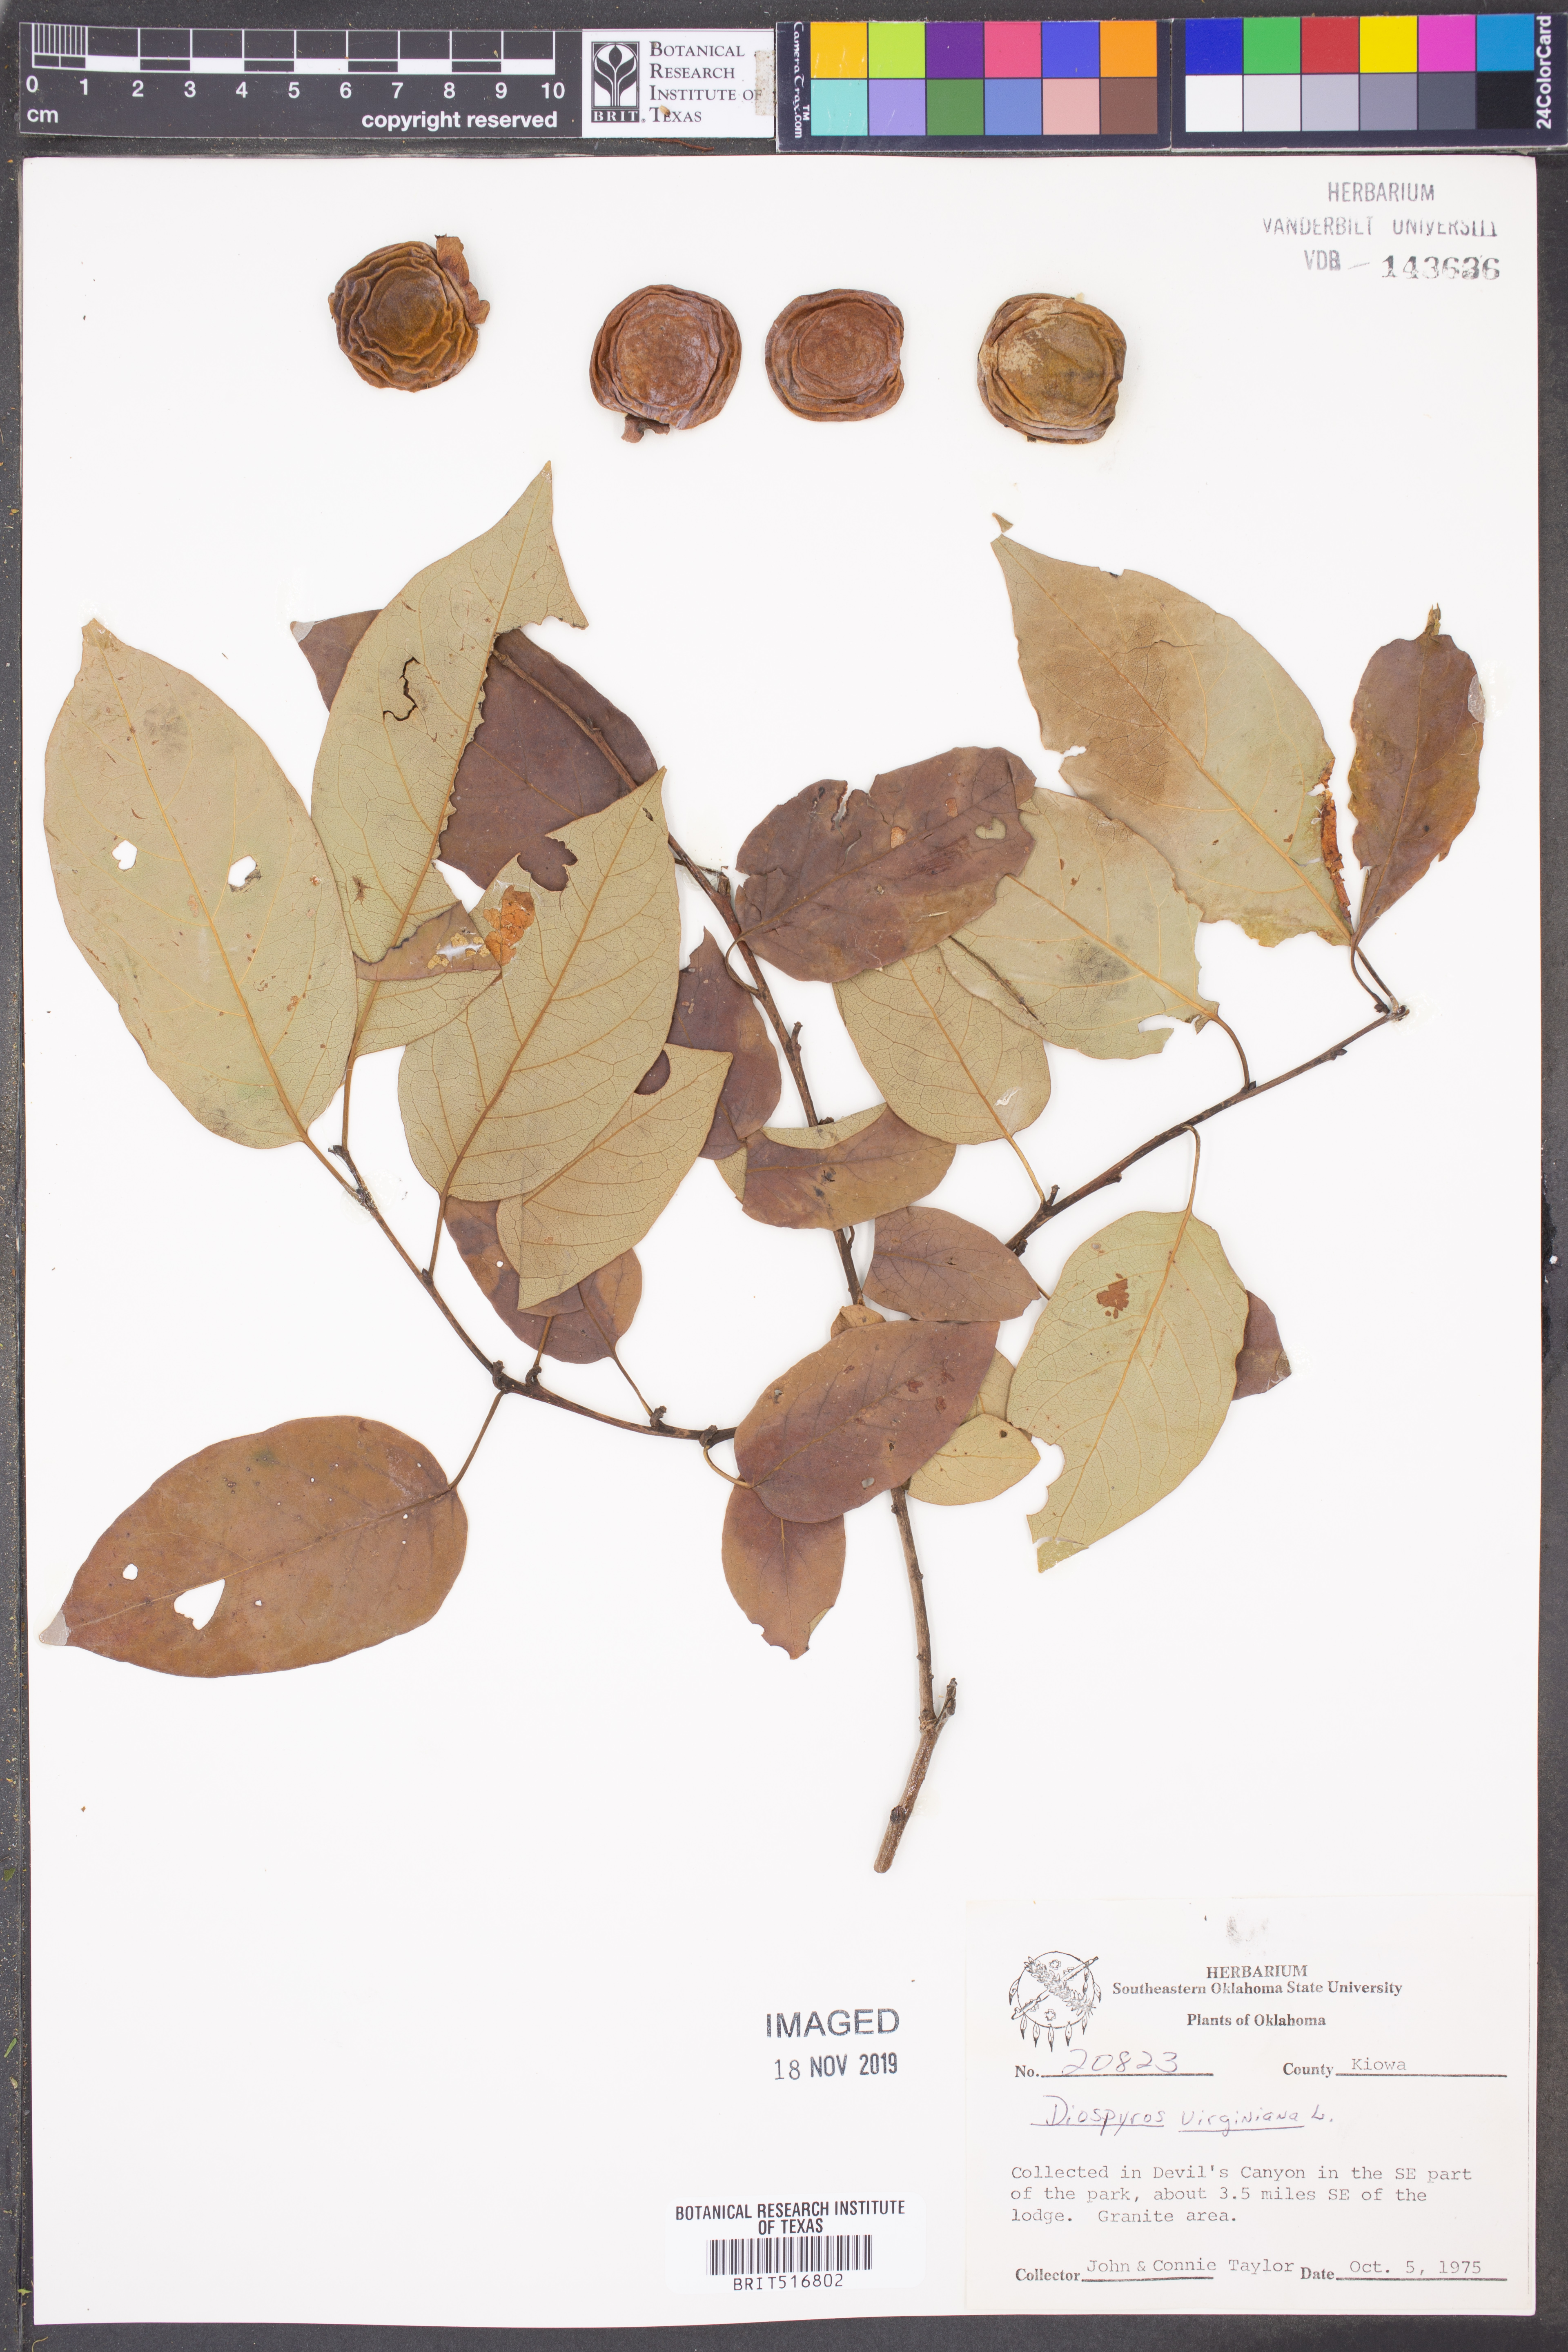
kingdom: Plantae
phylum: Tracheophyta
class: Magnoliopsida
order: Ericales
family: Ebenaceae
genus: Diospyros
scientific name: Diospyros virginiana
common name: Persimmon
